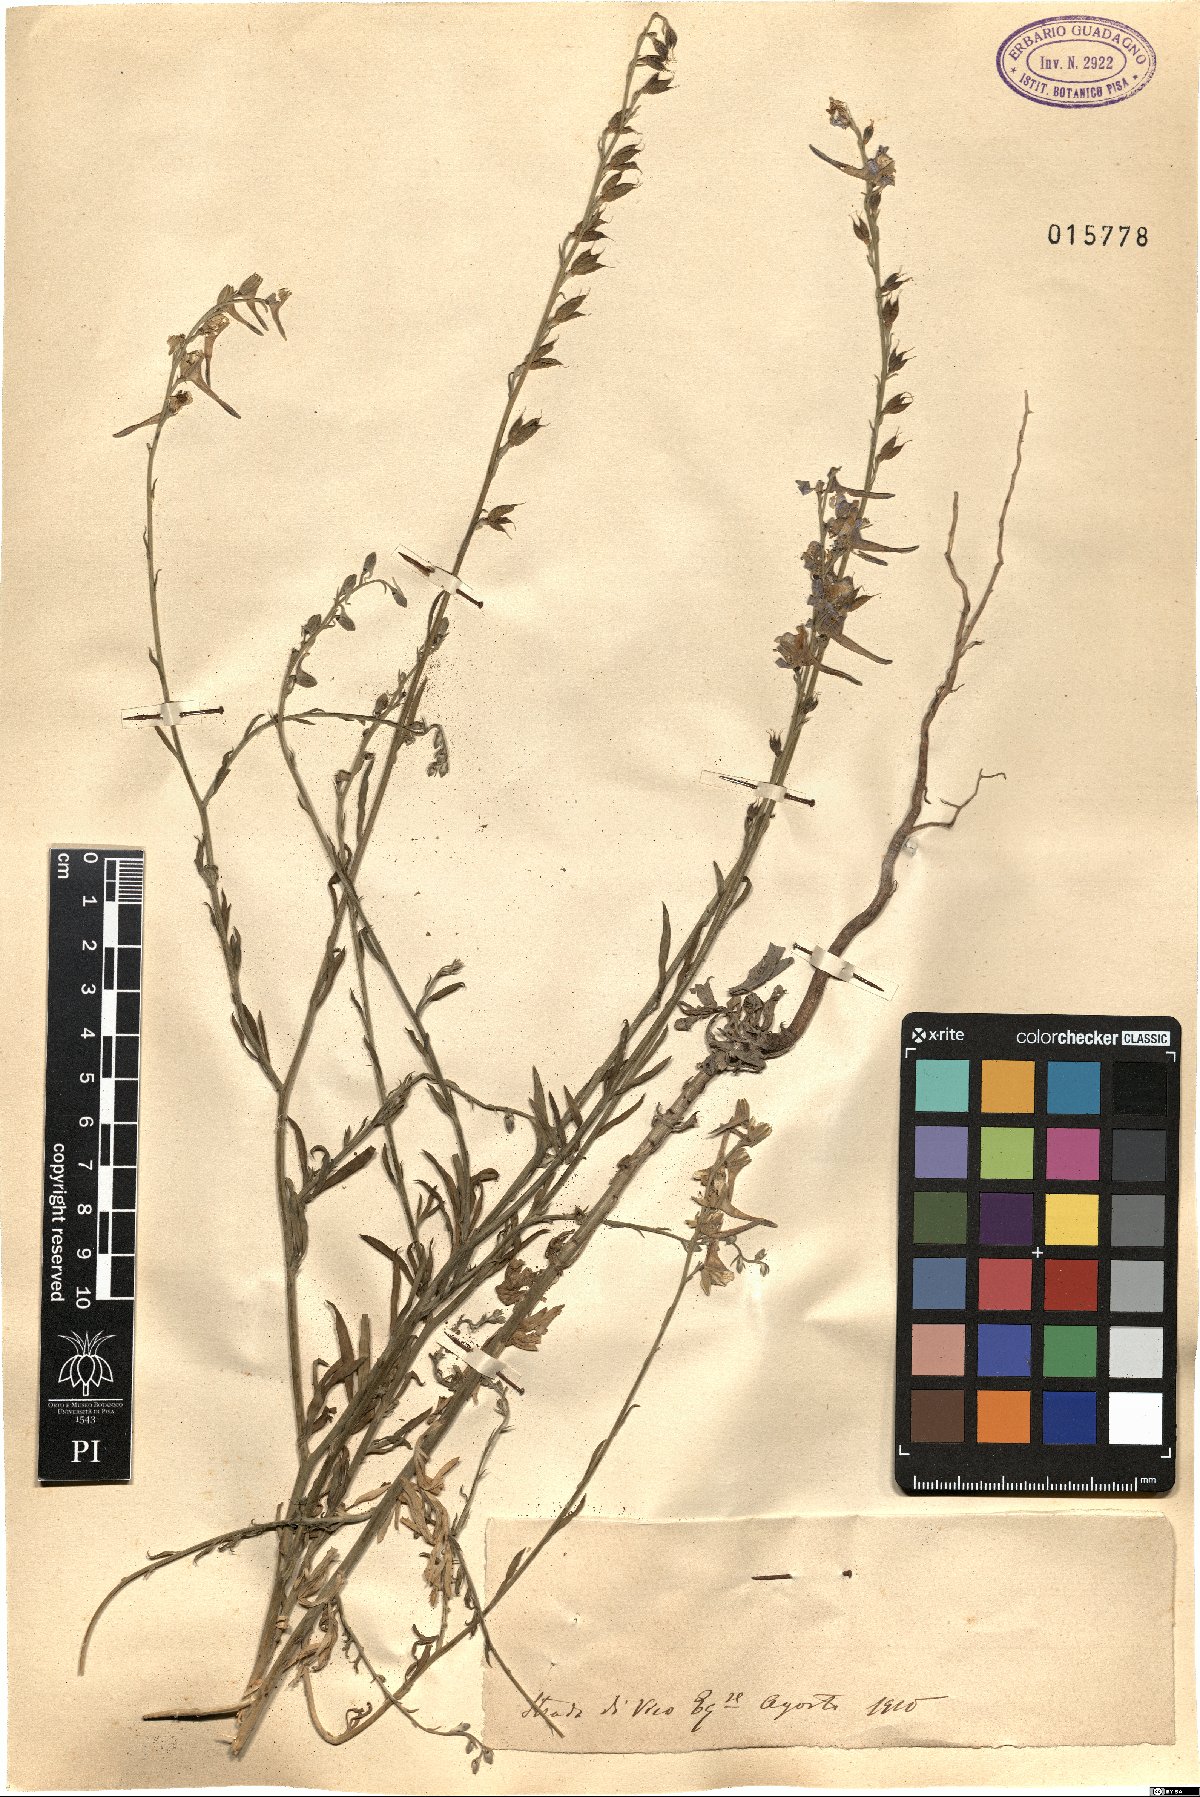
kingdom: Plantae
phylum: Tracheophyta
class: Magnoliopsida
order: Ranunculales
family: Ranunculaceae
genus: Delphinium
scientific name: Delphinium
